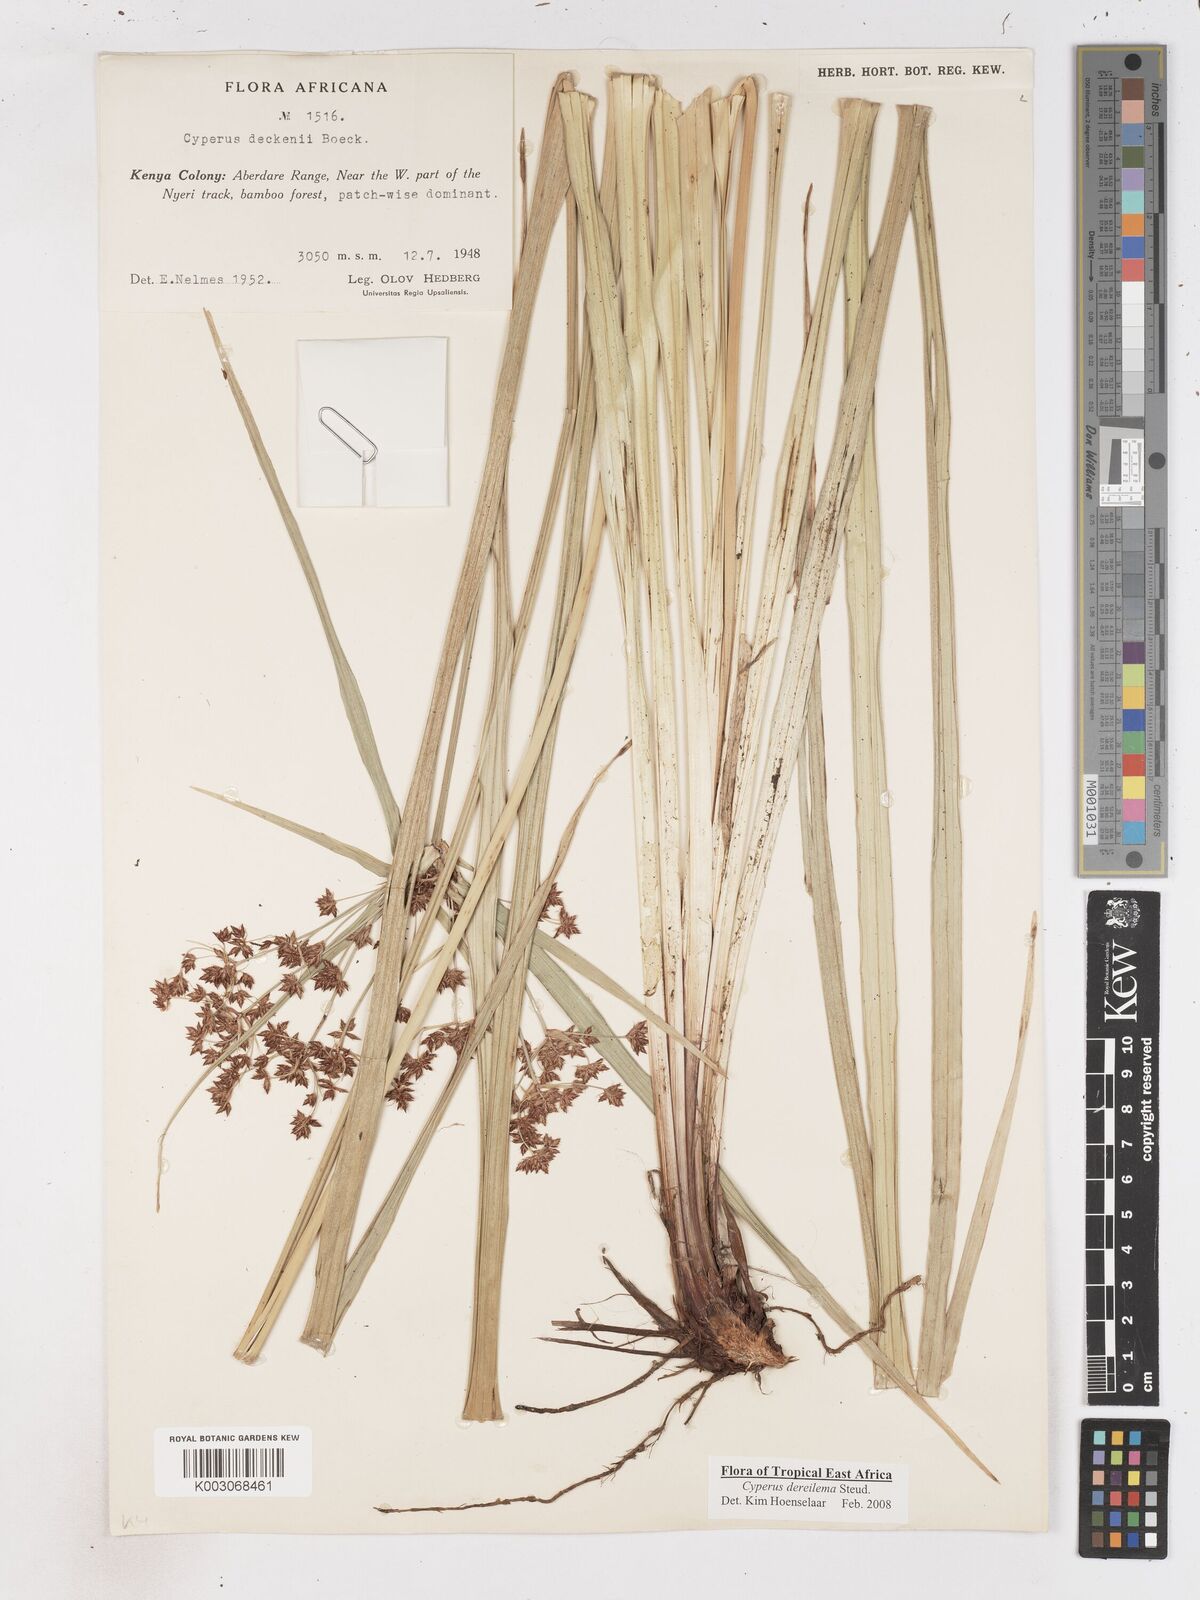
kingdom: Plantae
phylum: Tracheophyta
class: Liliopsida
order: Poales
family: Cyperaceae
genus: Cyperus
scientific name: Cyperus derreilema
